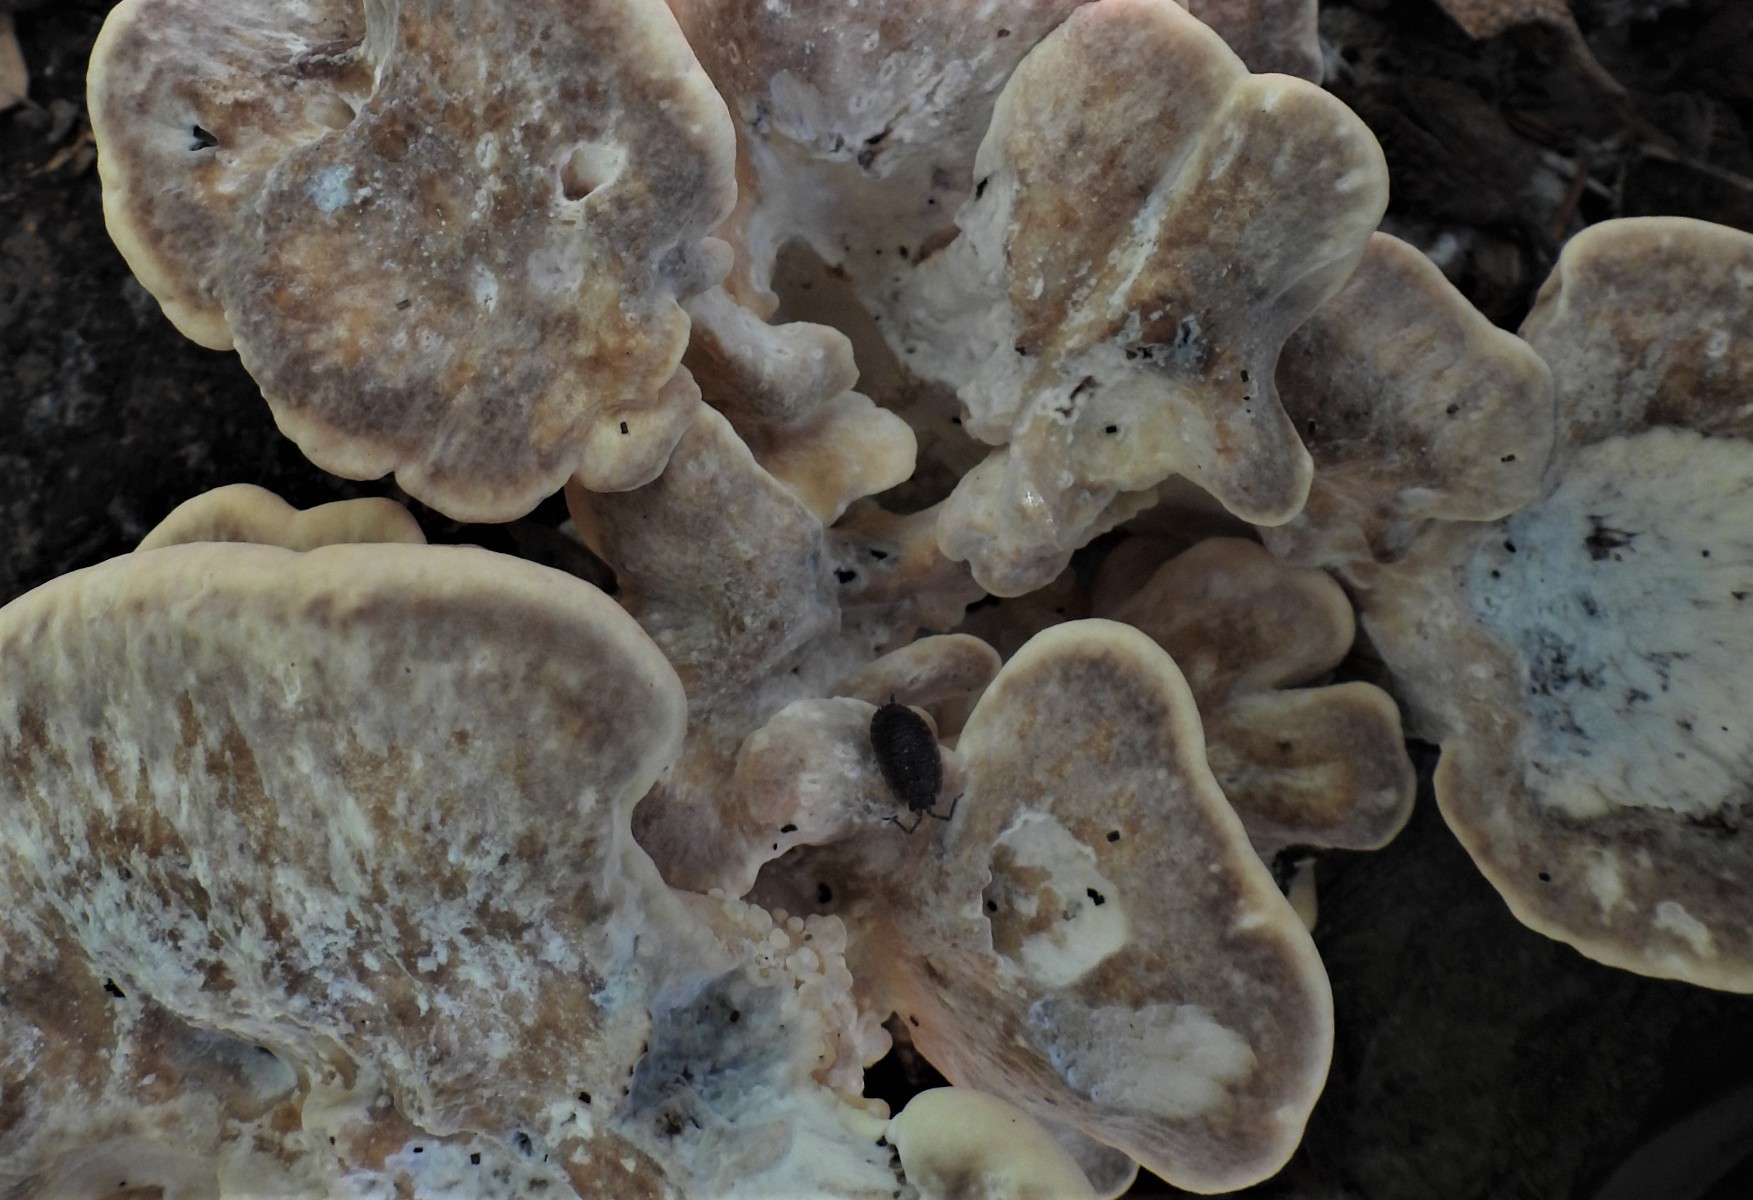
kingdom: Fungi
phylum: Basidiomycota
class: Agaricomycetes
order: Polyporales
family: Meripilaceae
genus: Meripilus
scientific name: Meripilus giganteus
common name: kæmpeporesvamp
